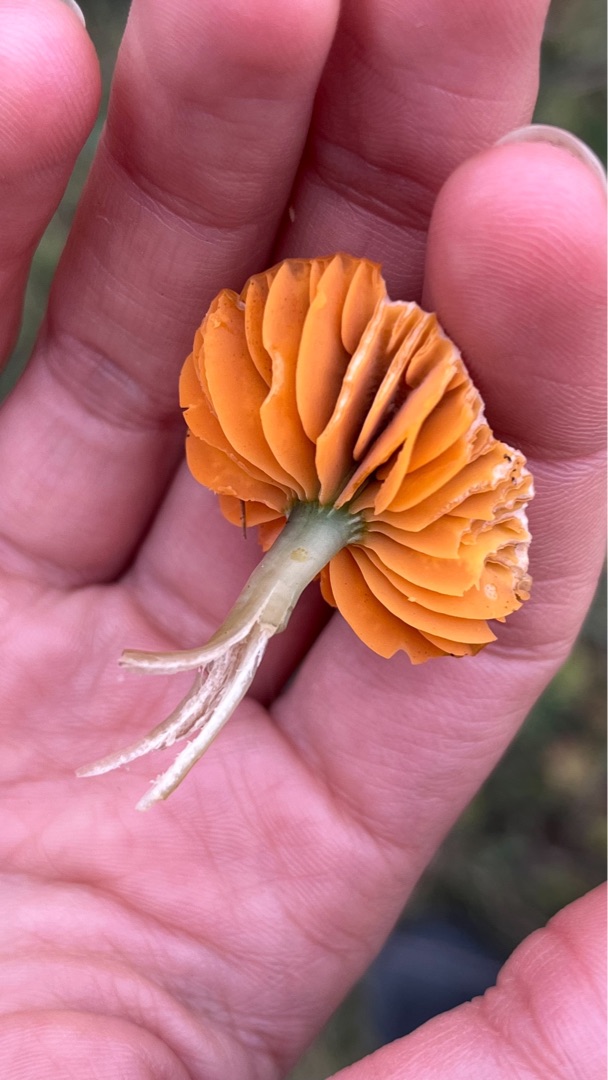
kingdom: Fungi
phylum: Basidiomycota
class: Agaricomycetes
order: Agaricales
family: Hygrophoraceae
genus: Gliophorus
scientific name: Gliophorus psittacinus
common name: Papegøje-vokshat
